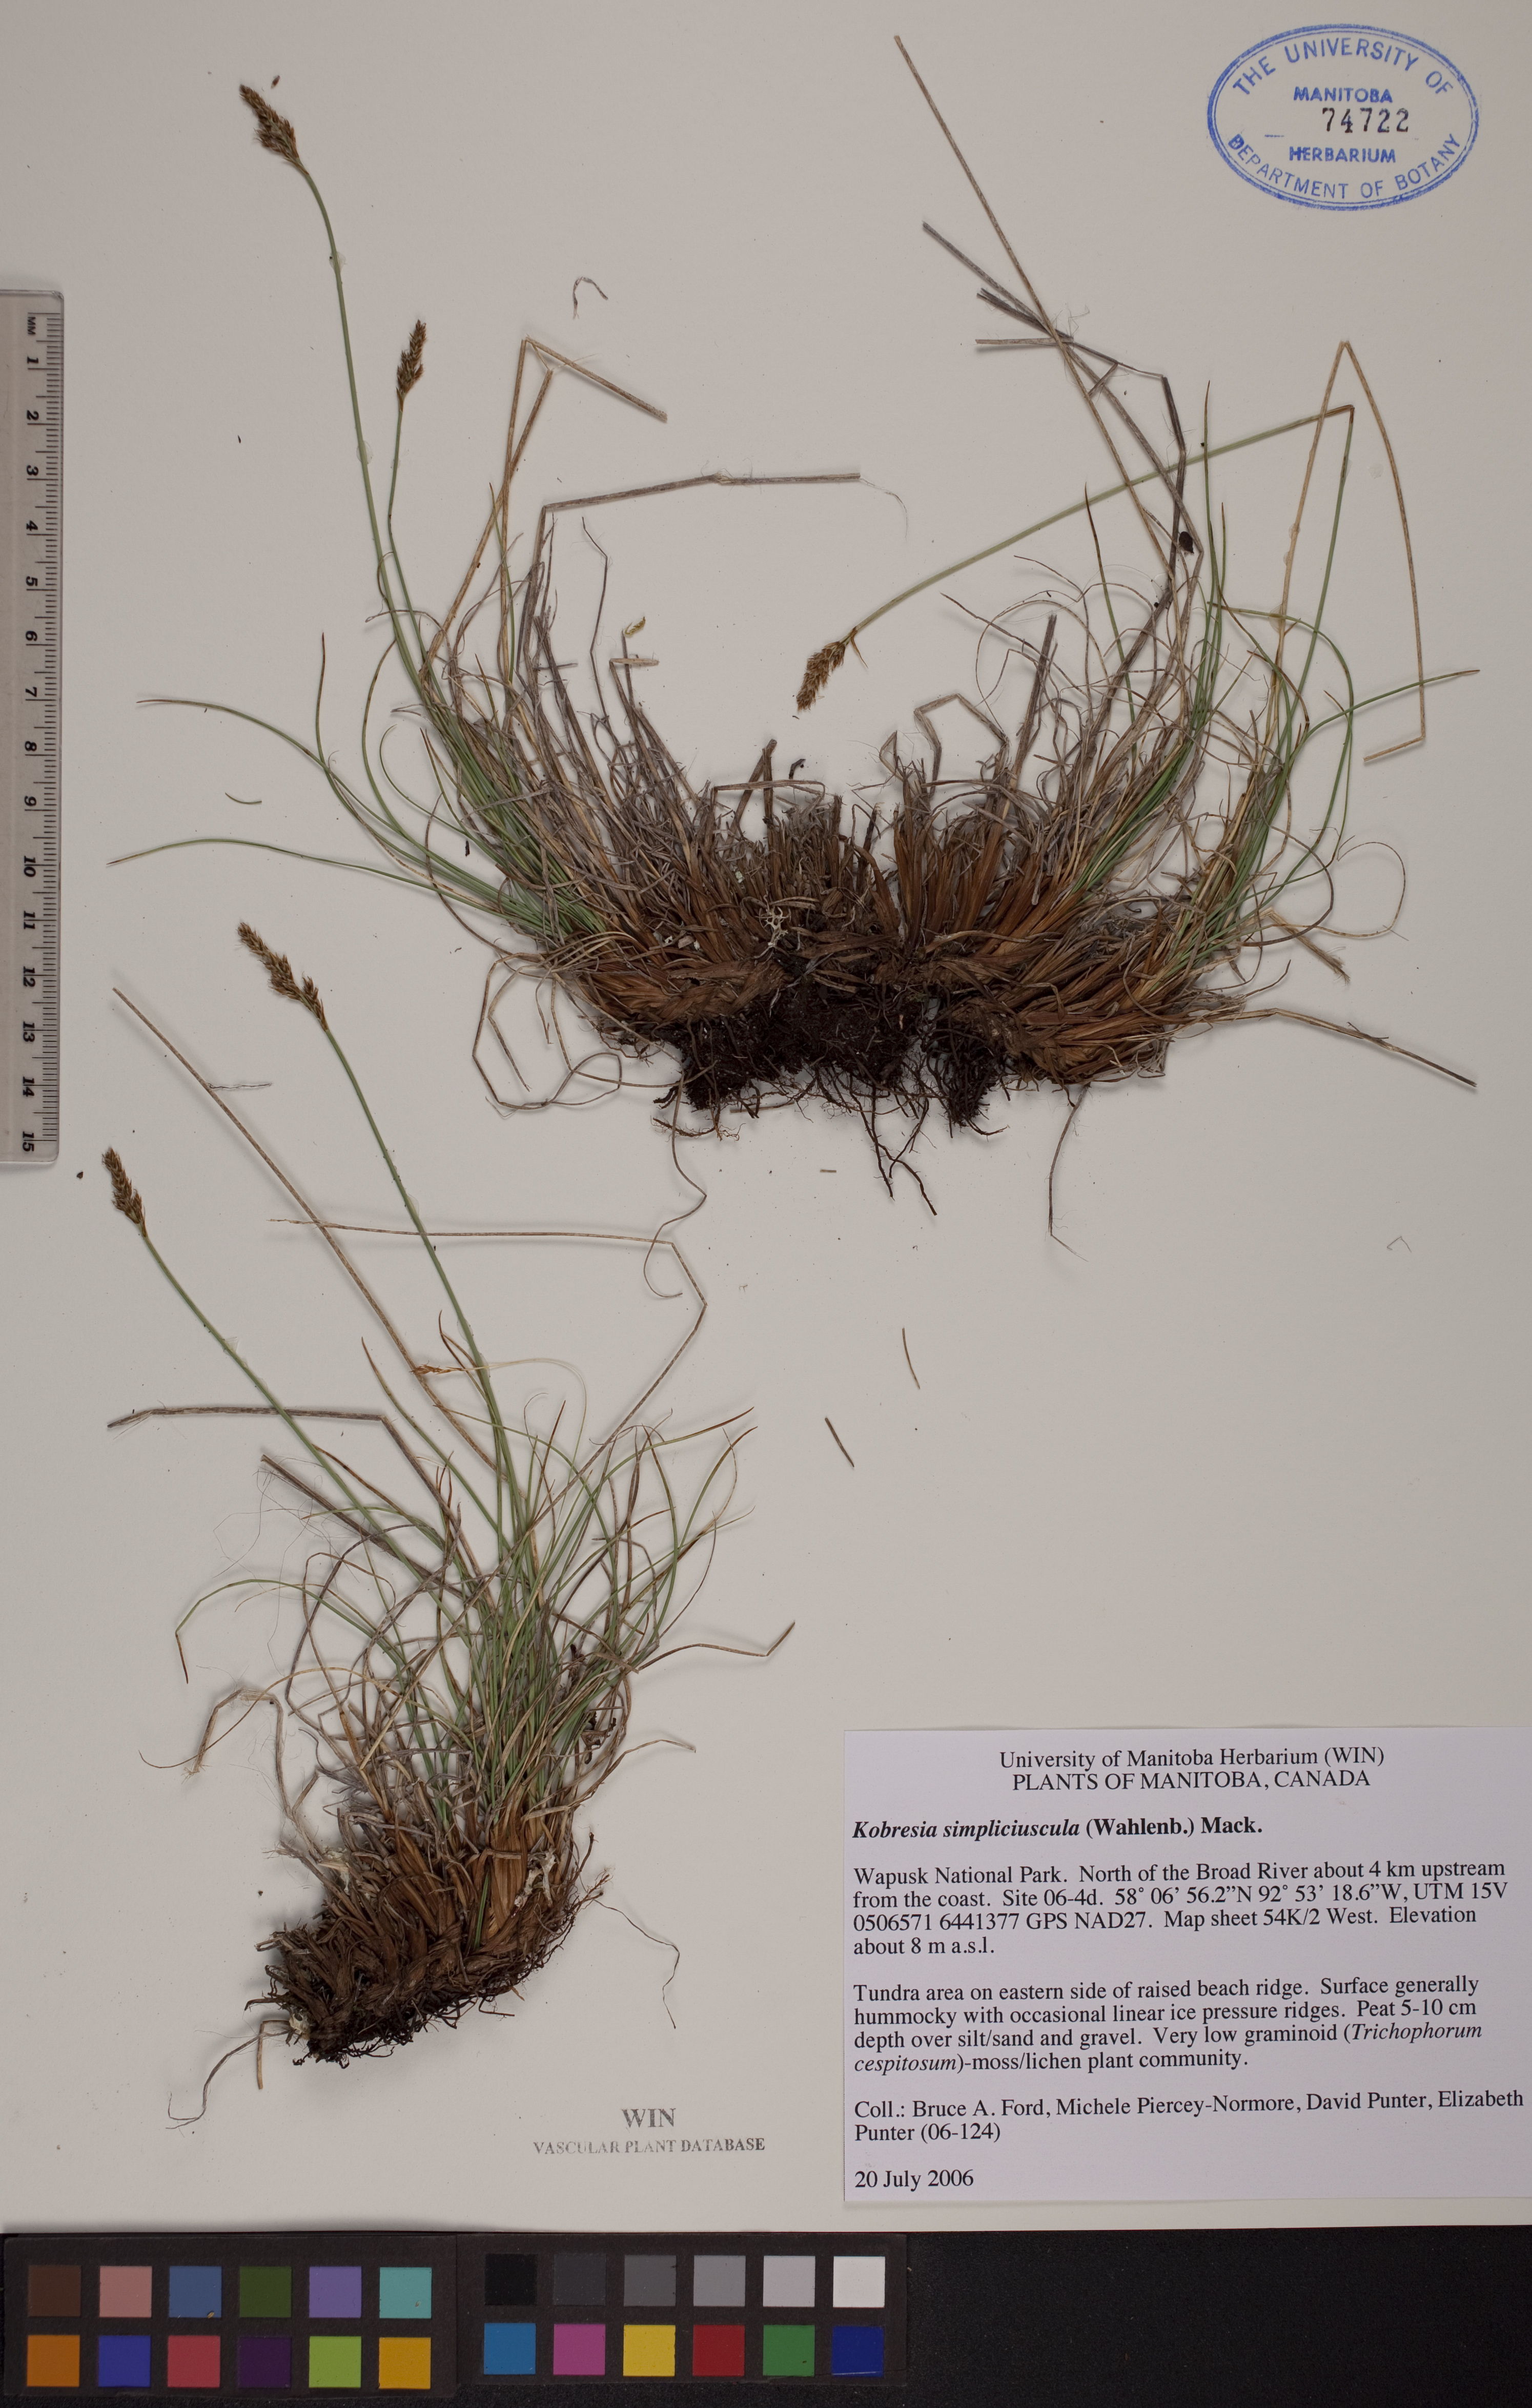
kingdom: Plantae
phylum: Tracheophyta
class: Liliopsida
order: Poales
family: Cyperaceae
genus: Carex
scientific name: Carex simpliciuscula
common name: Simple bog sedge
